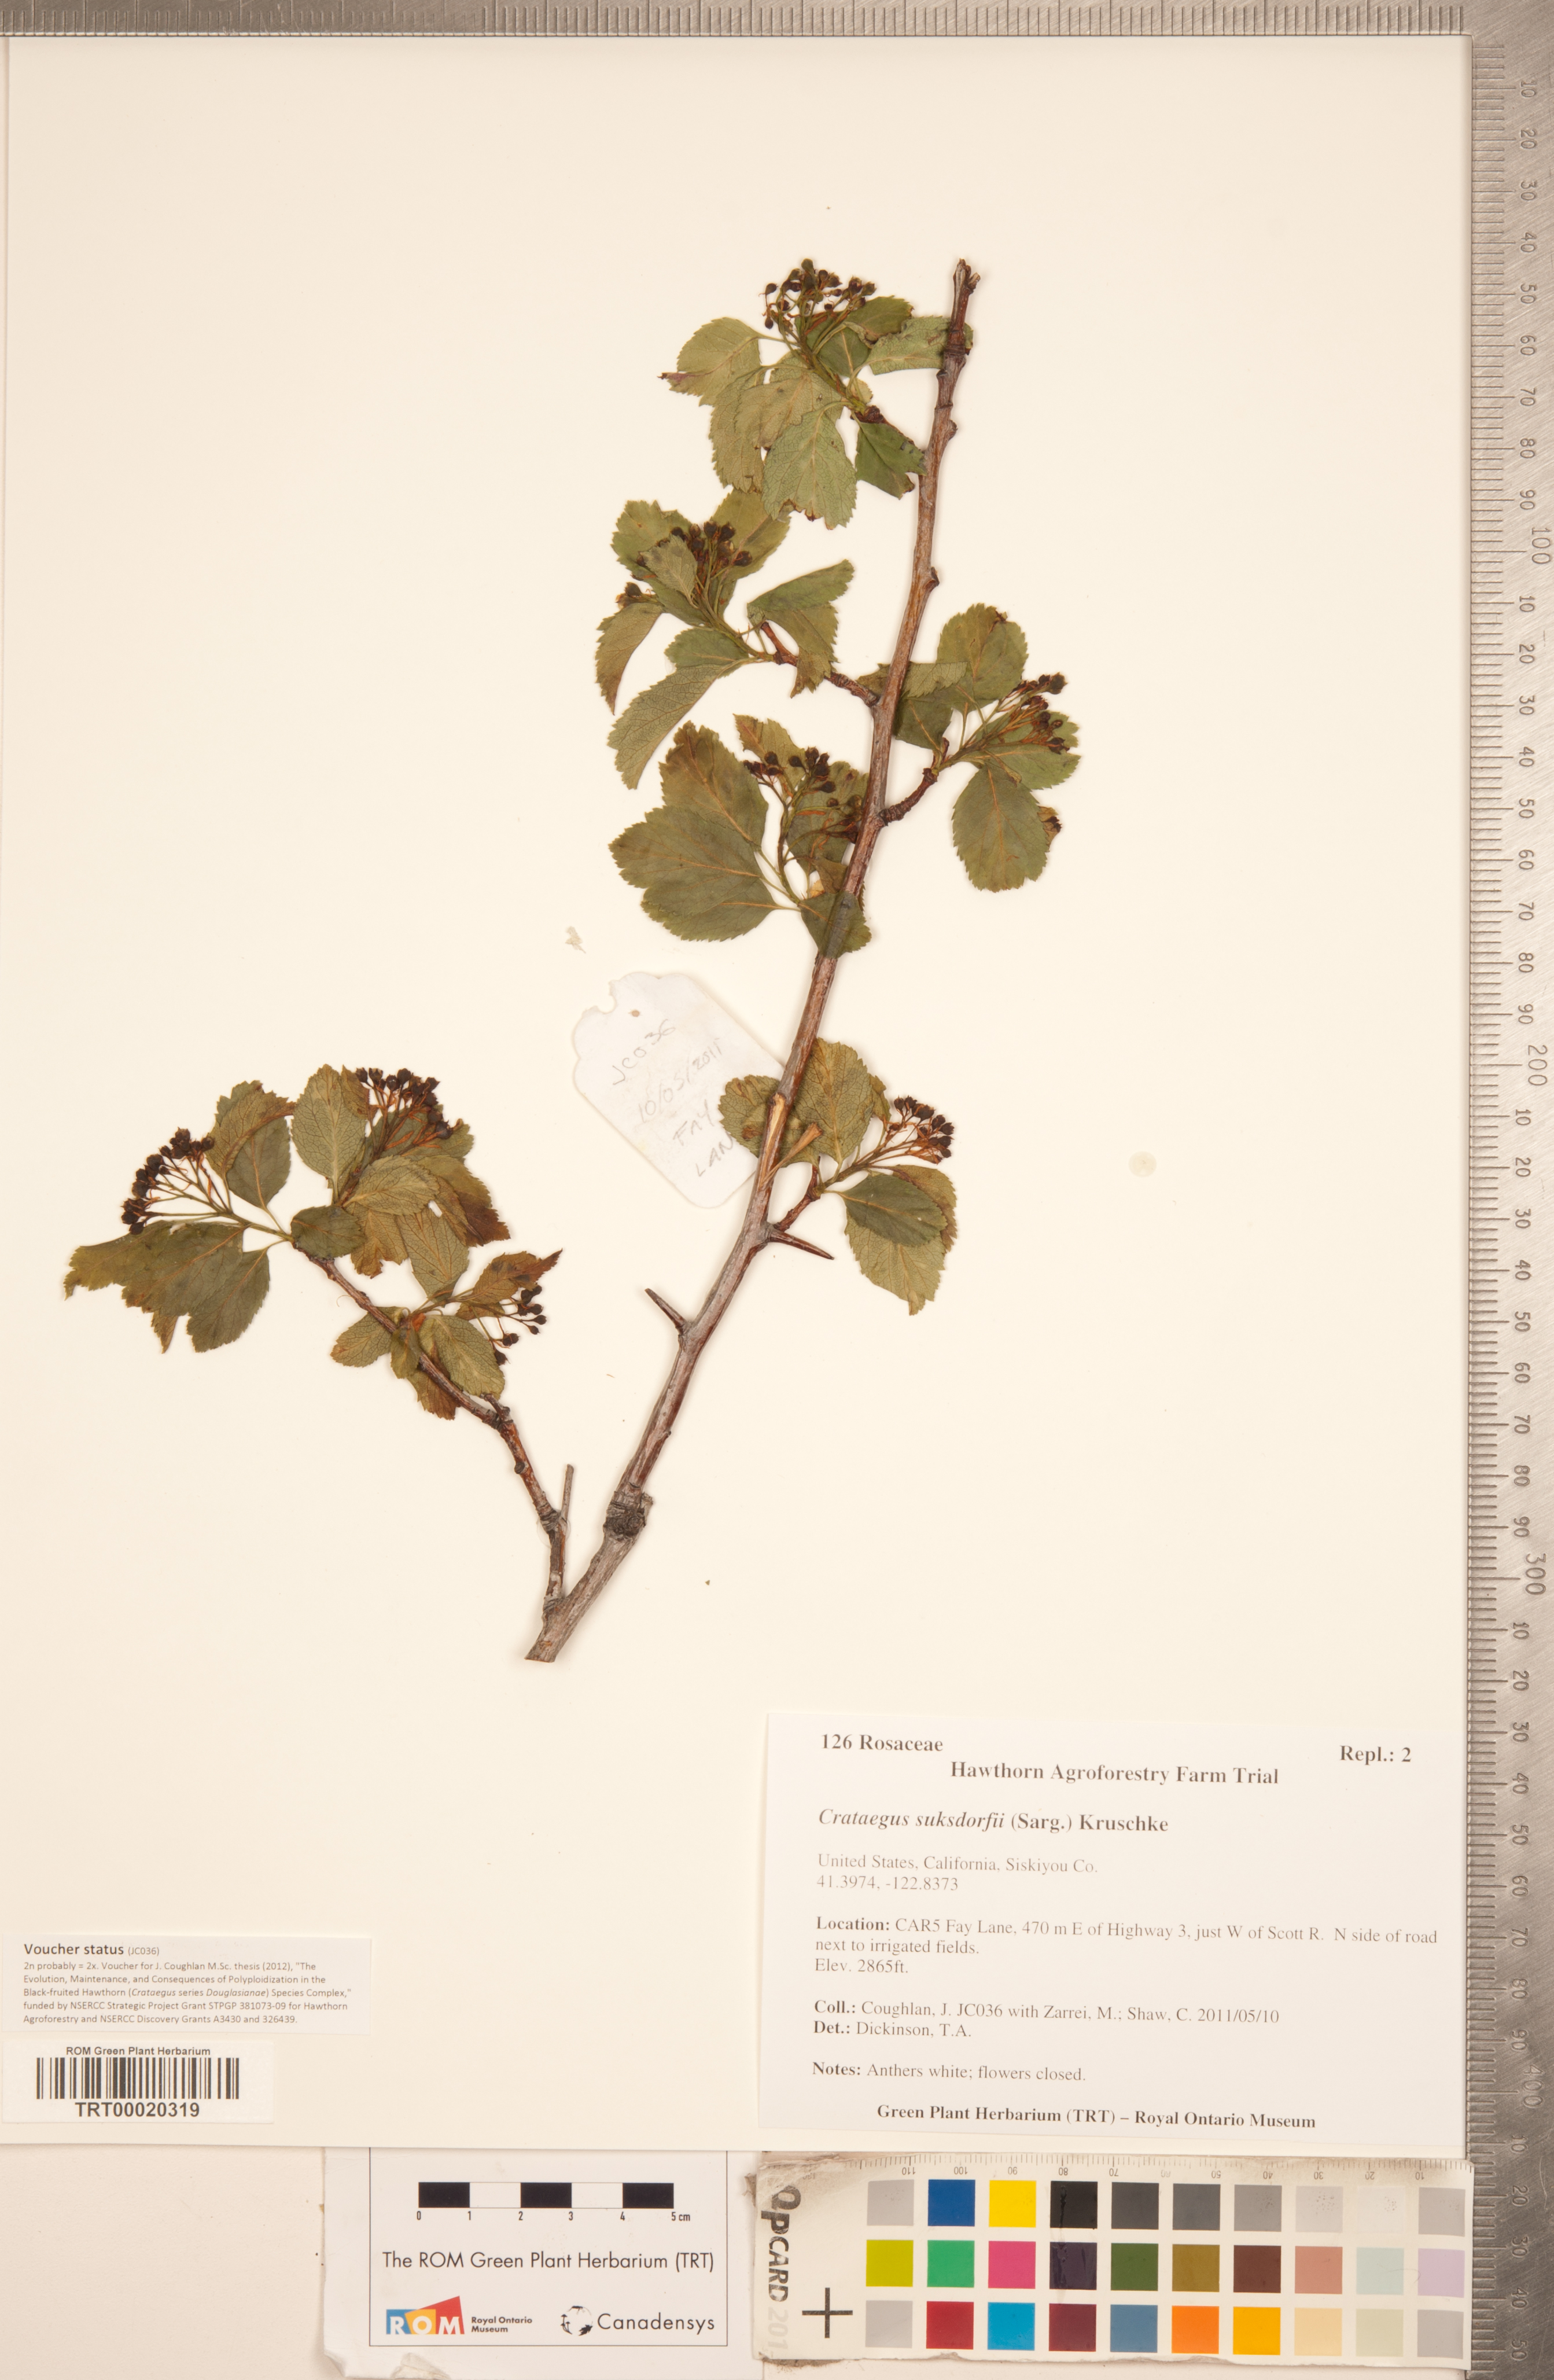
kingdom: Plantae
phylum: Tracheophyta
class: Magnoliopsida
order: Rosales
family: Rosaceae
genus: Crataegus
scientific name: Crataegus gaylussacia
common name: Huckleberry hawthorn
